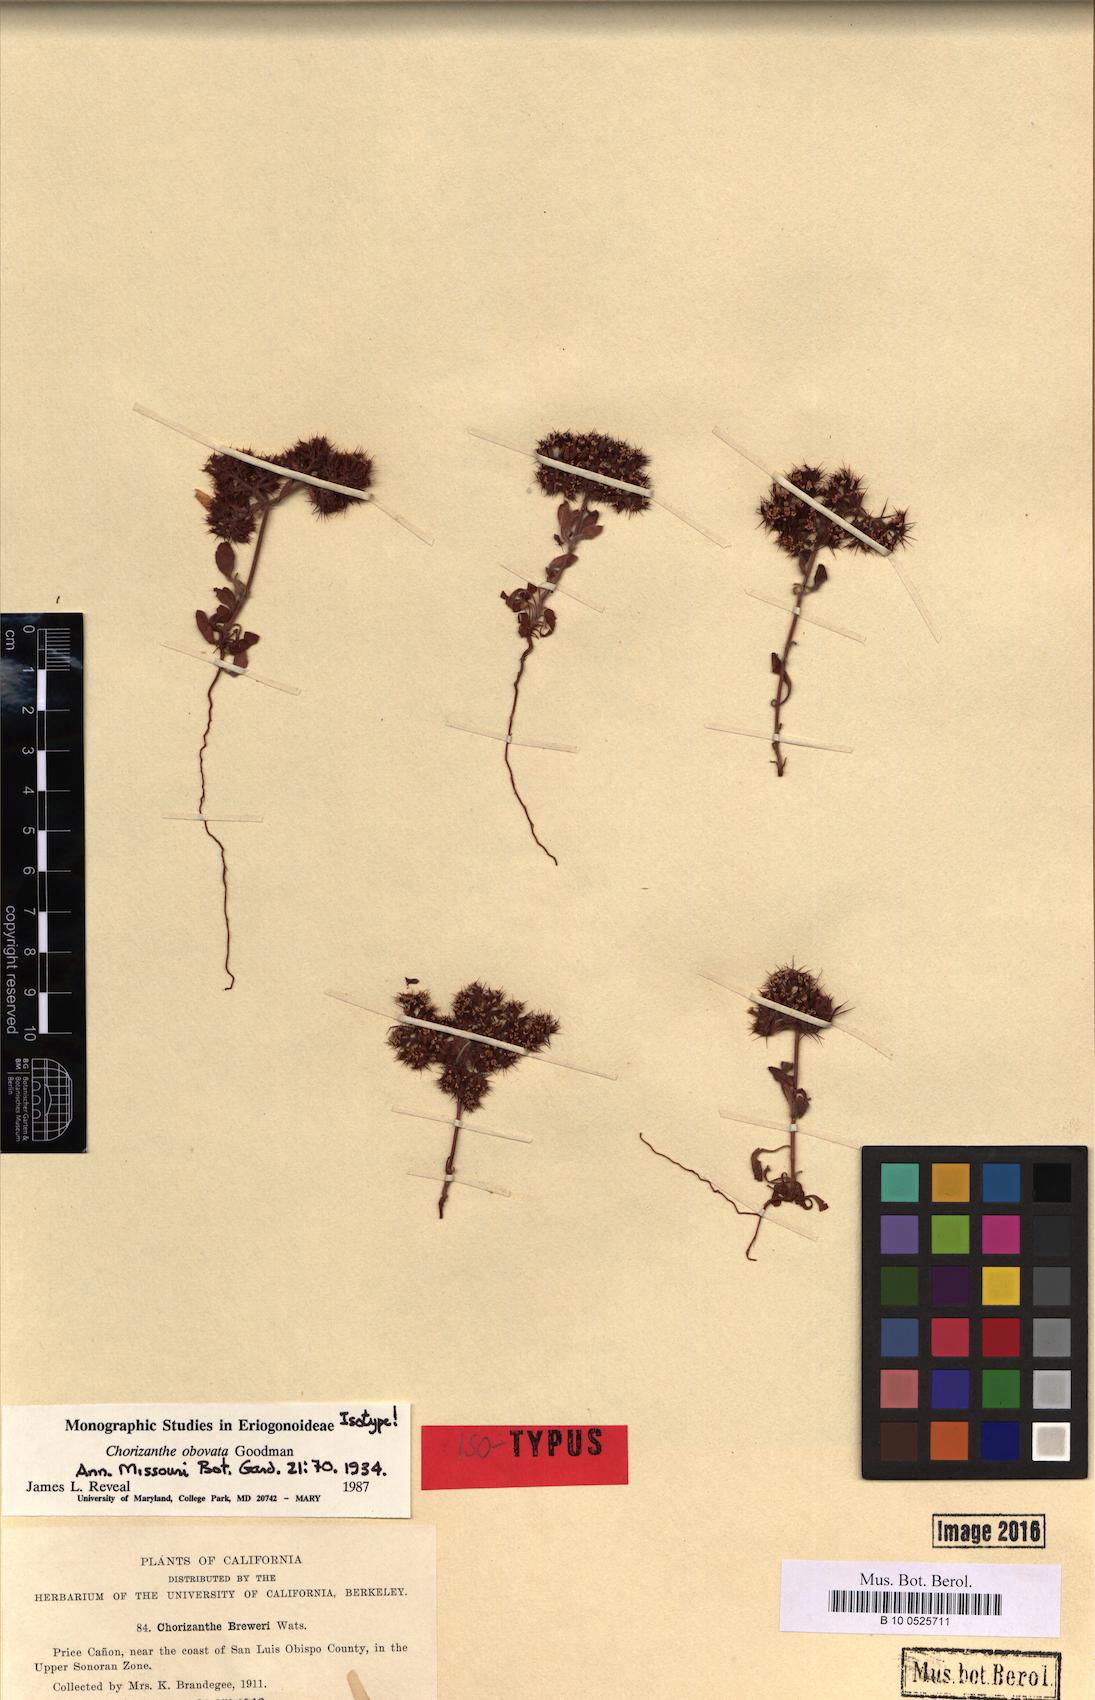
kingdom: Plantae
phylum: Tracheophyta
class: Magnoliopsida
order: Caryophyllales
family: Polygonaceae
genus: Chorizanthe
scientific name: Chorizanthe obovata
